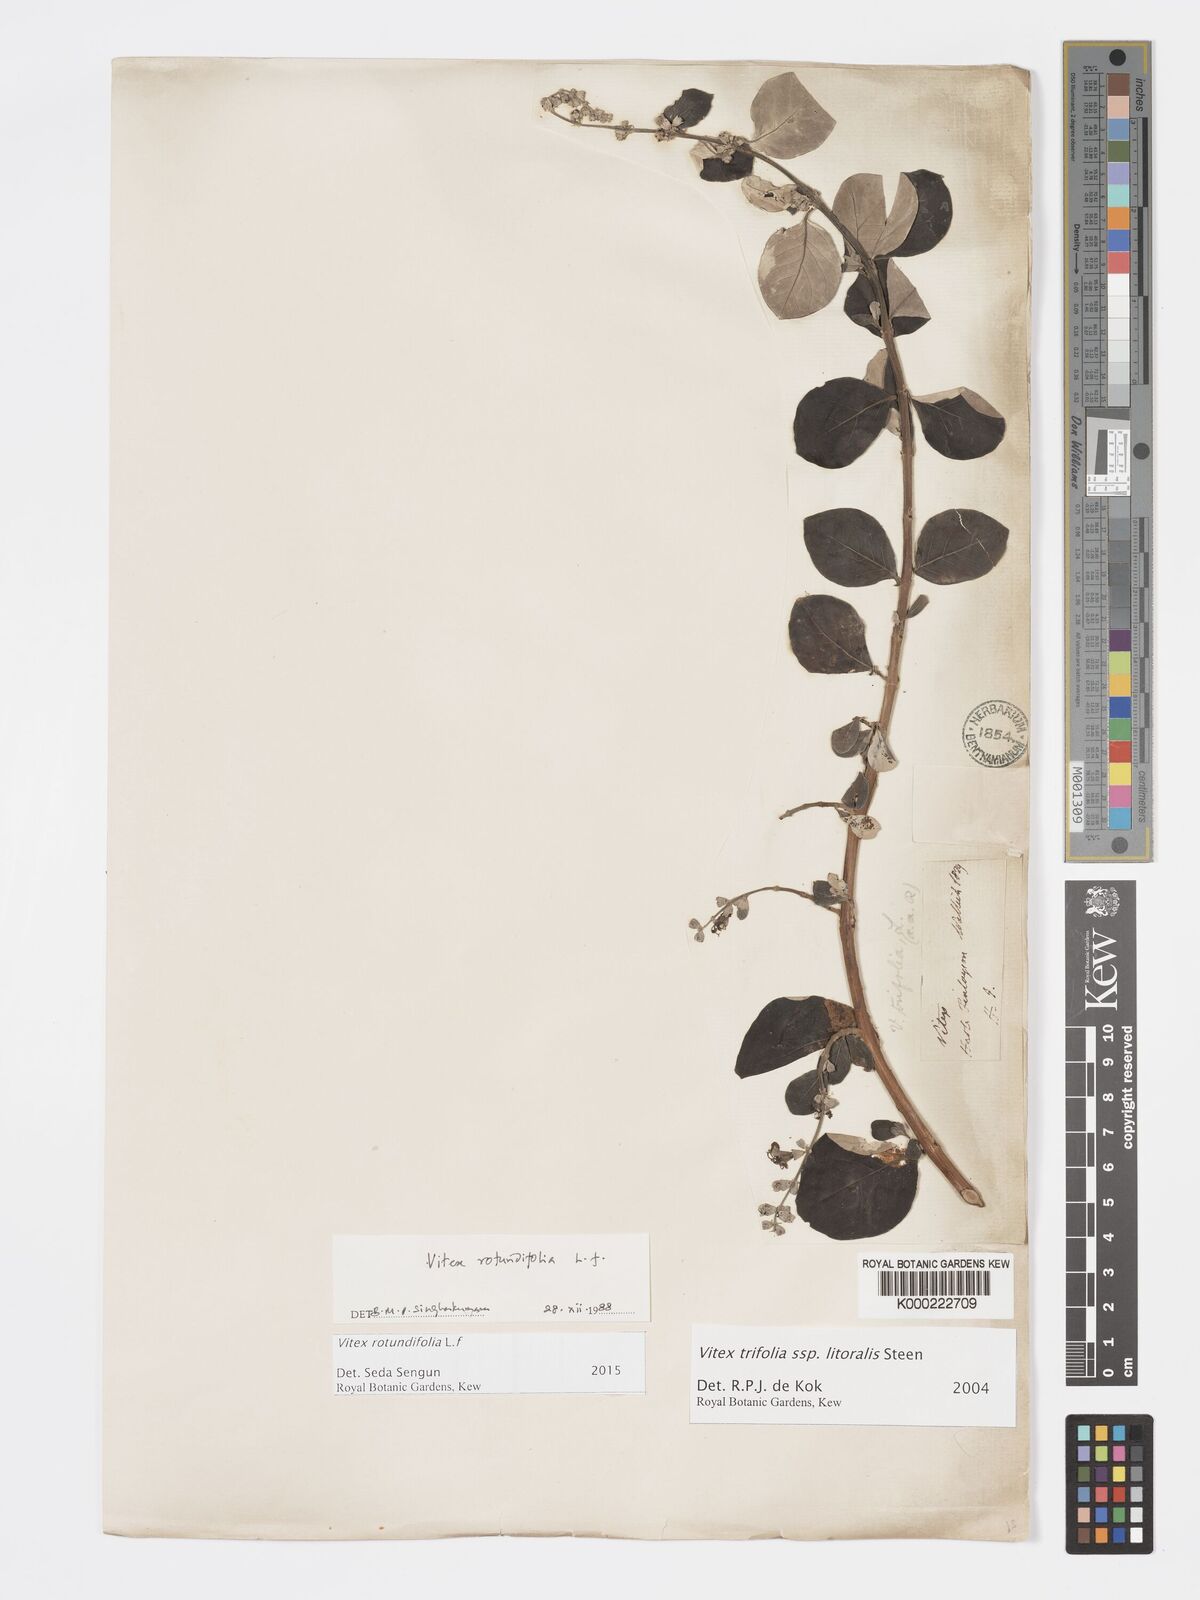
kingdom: Plantae
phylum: Tracheophyta
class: Magnoliopsida
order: Lamiales
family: Lamiaceae
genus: Vitex
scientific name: Vitex rotundifolia
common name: Beach vitex
